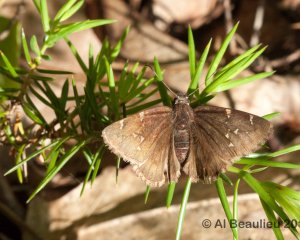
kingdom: Animalia
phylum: Arthropoda
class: Insecta
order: Lepidoptera
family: Hesperiidae
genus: Autochton
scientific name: Autochton
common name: Northern Cloudywing
